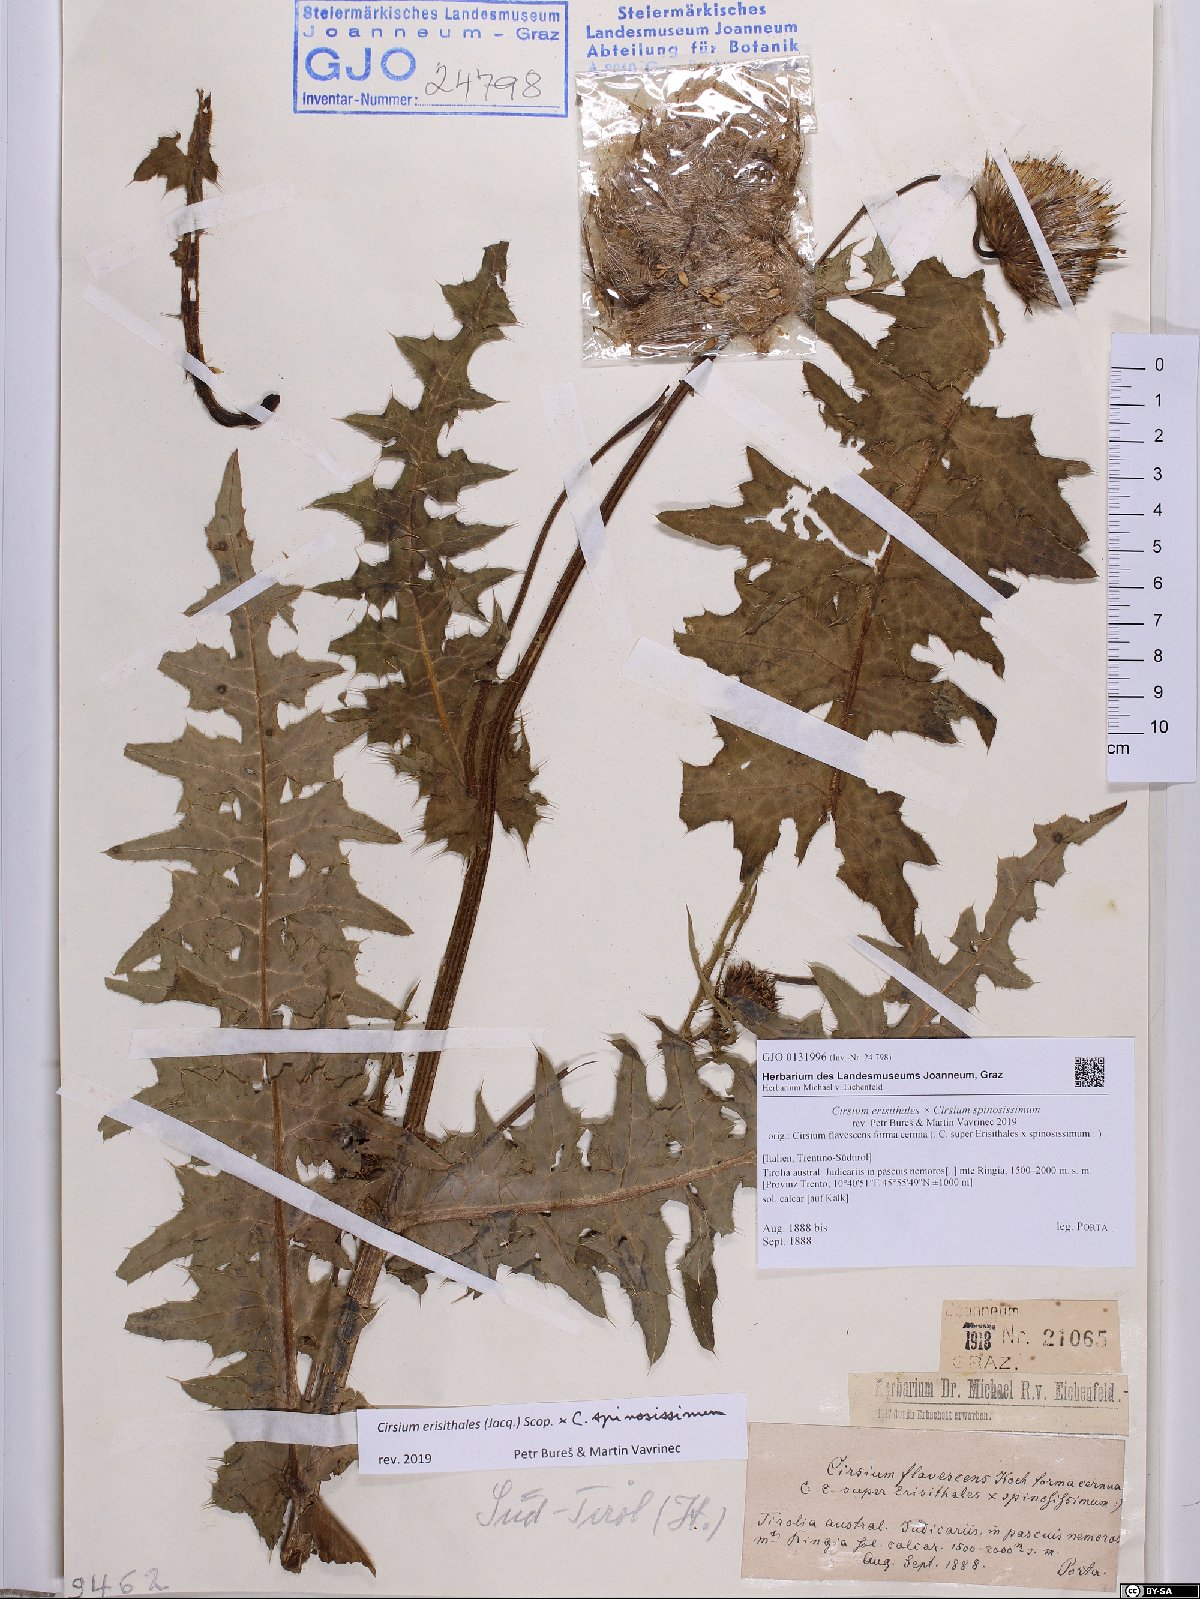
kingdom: Plantae
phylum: Tracheophyta
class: Magnoliopsida
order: Asterales
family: Asteraceae
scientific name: Asteraceae
